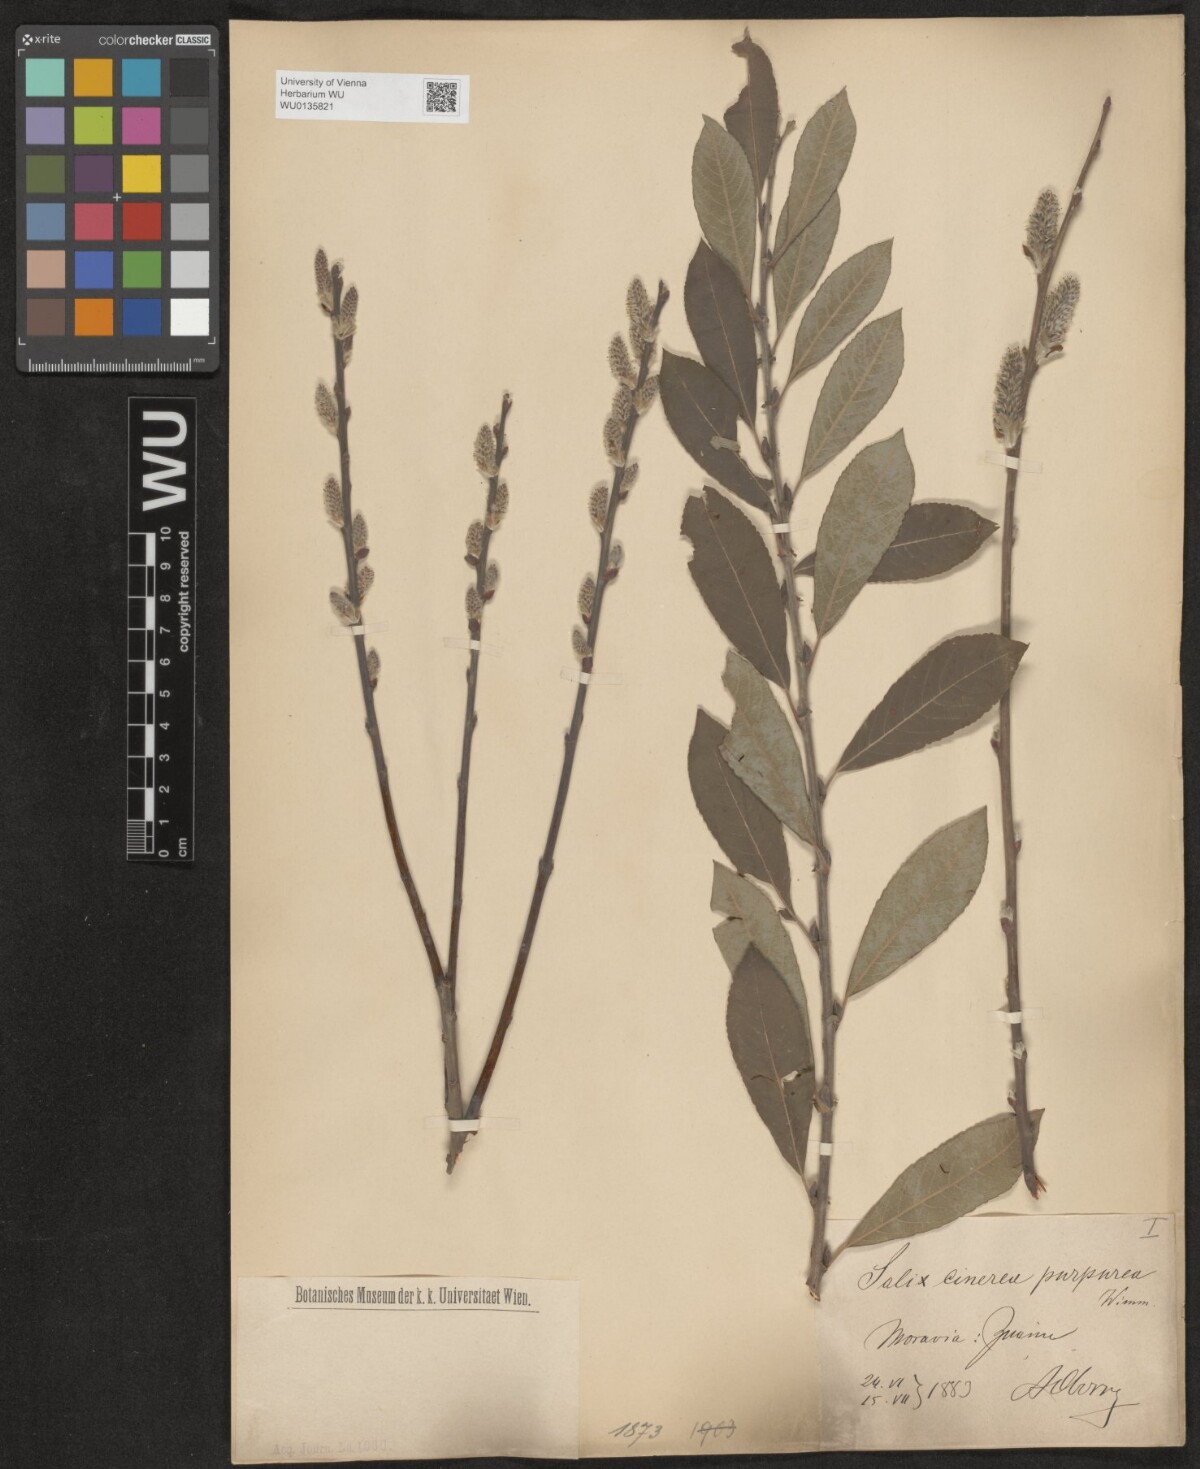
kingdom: Plantae
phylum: Tracheophyta
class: Magnoliopsida
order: Malpighiales
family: Salicaceae
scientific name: Salicaceae
